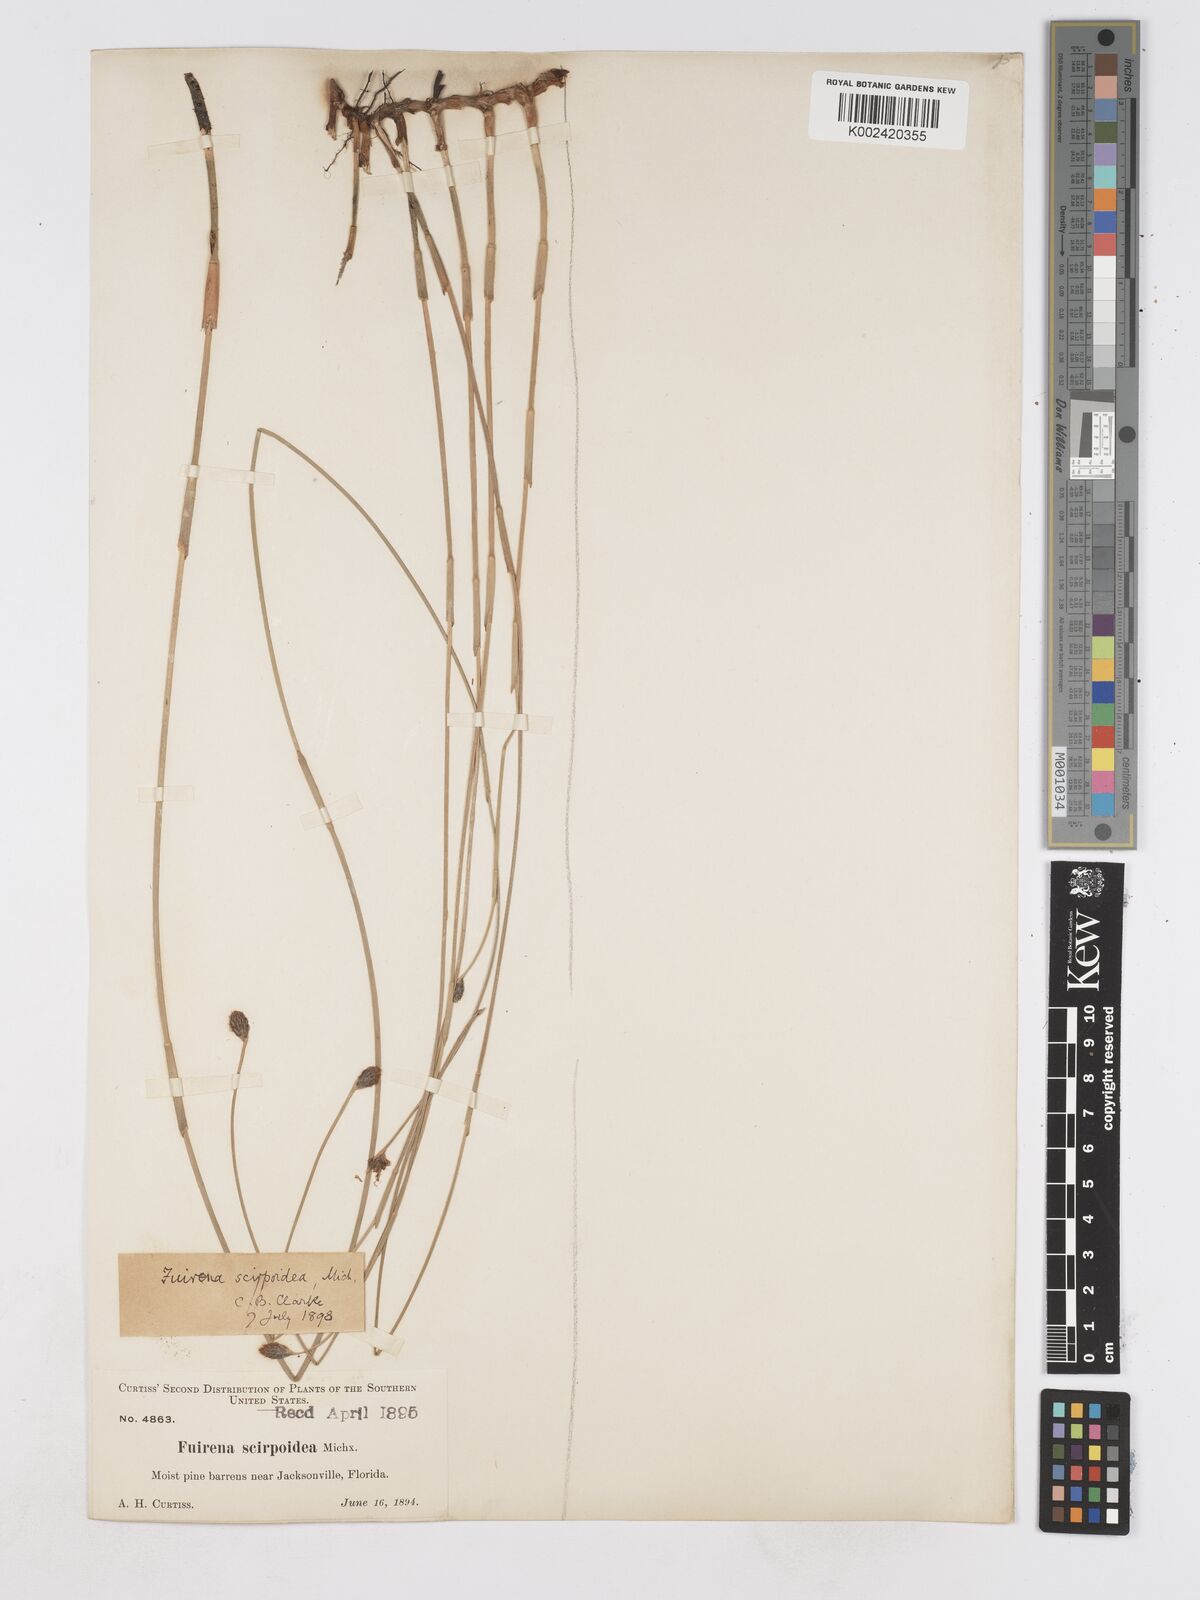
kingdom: Plantae
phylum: Tracheophyta
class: Liliopsida
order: Poales
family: Cyperaceae
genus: Fuirena
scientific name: Fuirena scirpoidea
